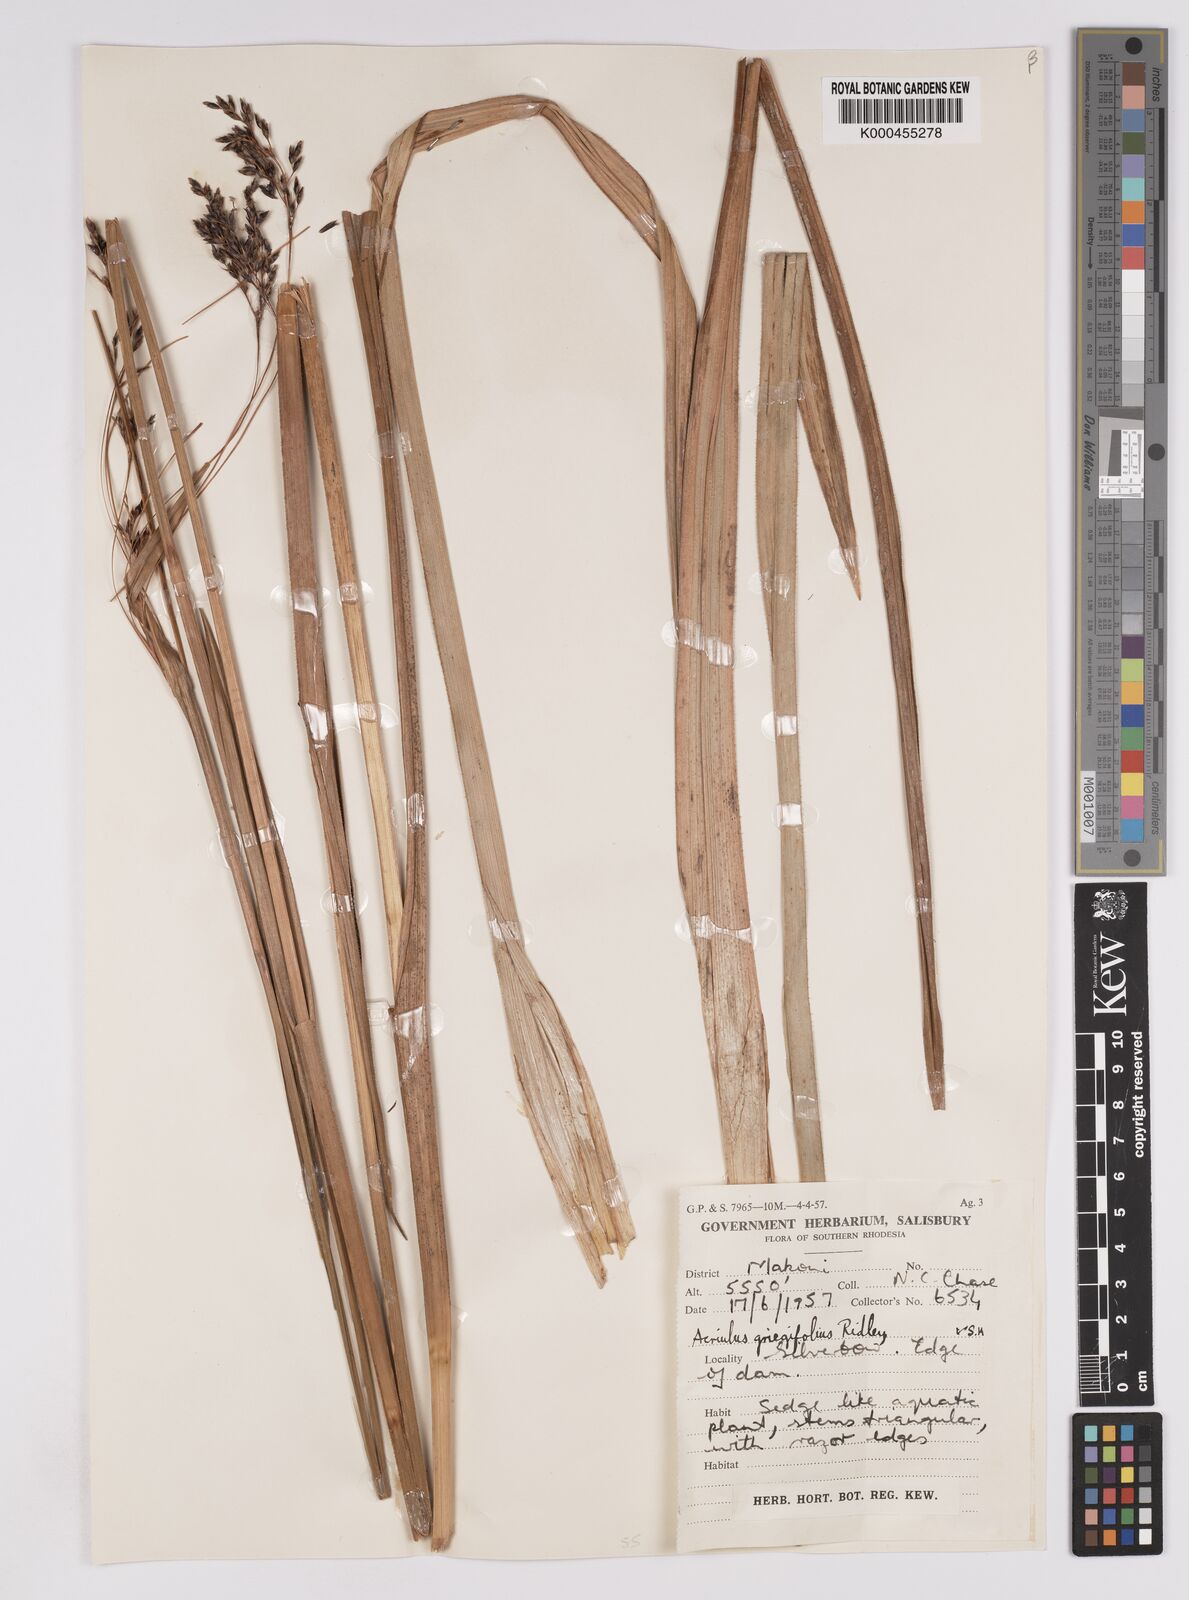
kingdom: Plantae
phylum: Tracheophyta
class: Liliopsida
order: Poales
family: Cyperaceae
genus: Scleria
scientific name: Scleria greigiifolia
